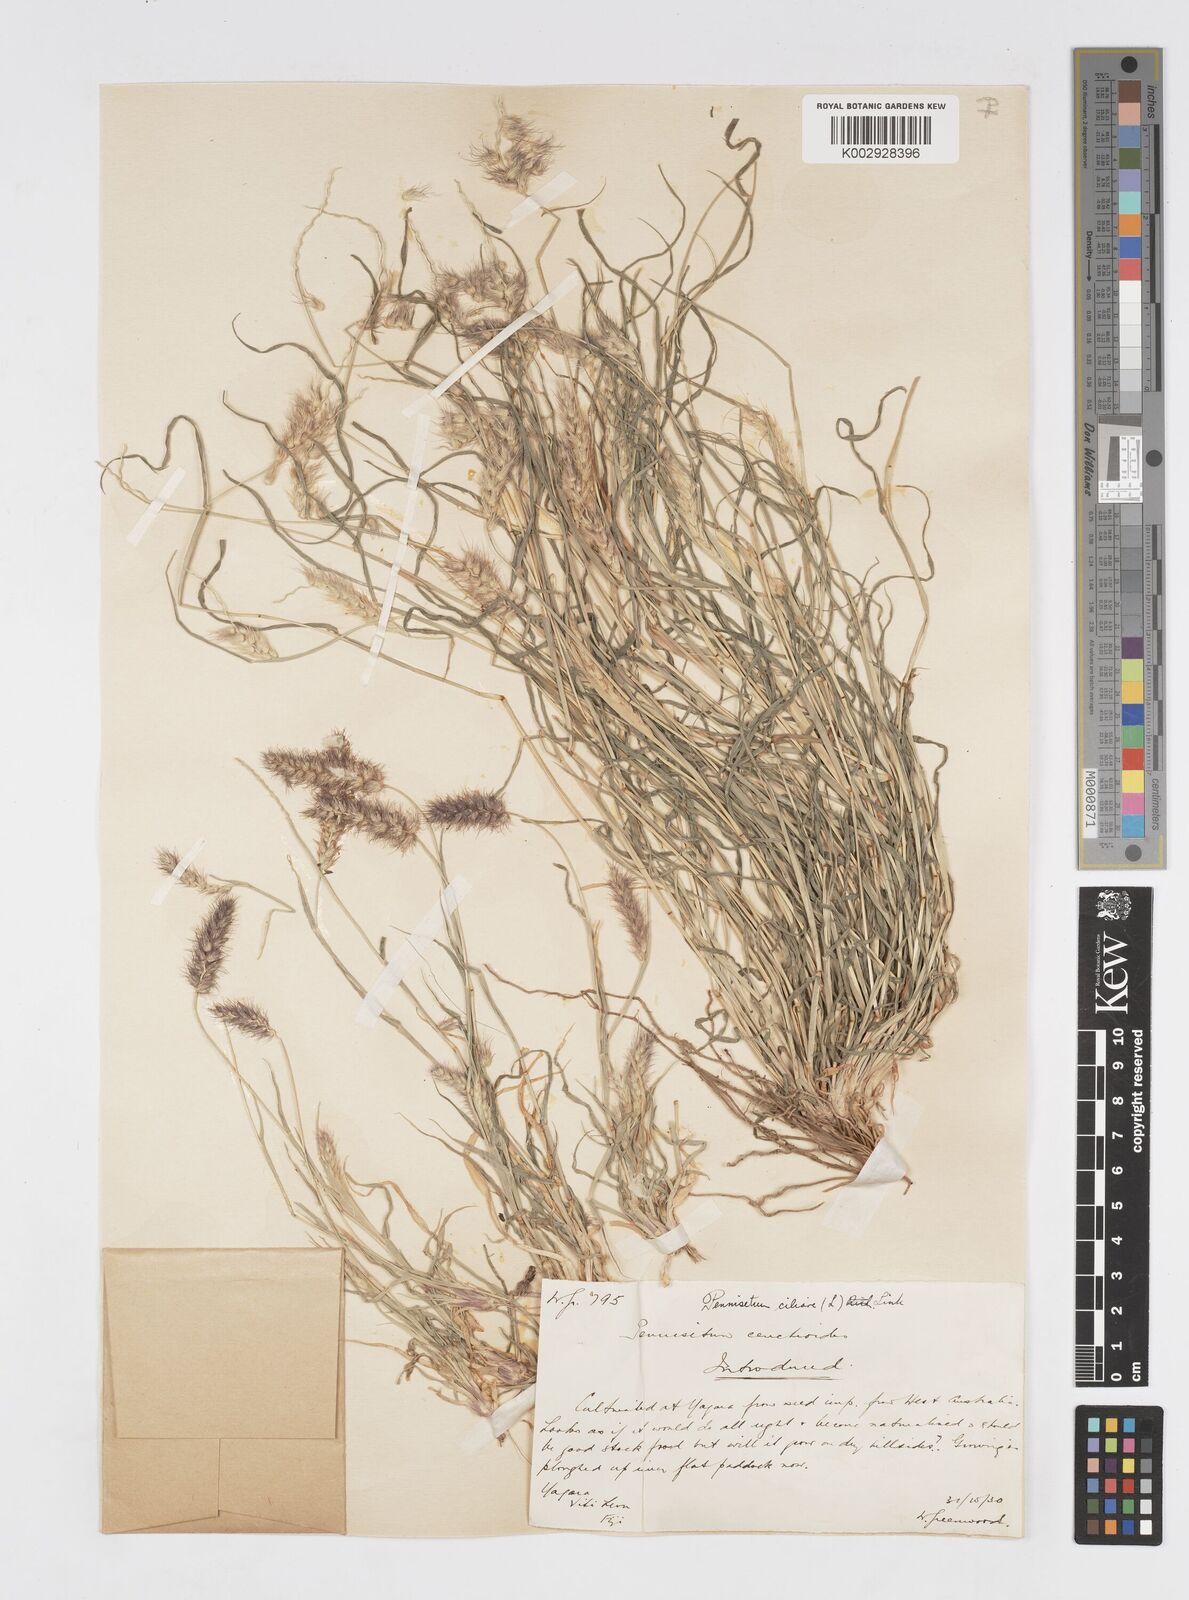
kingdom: Plantae
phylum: Tracheophyta
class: Liliopsida
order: Poales
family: Poaceae
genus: Cenchrus
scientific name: Cenchrus pennisetiformis
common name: Cloncurry
